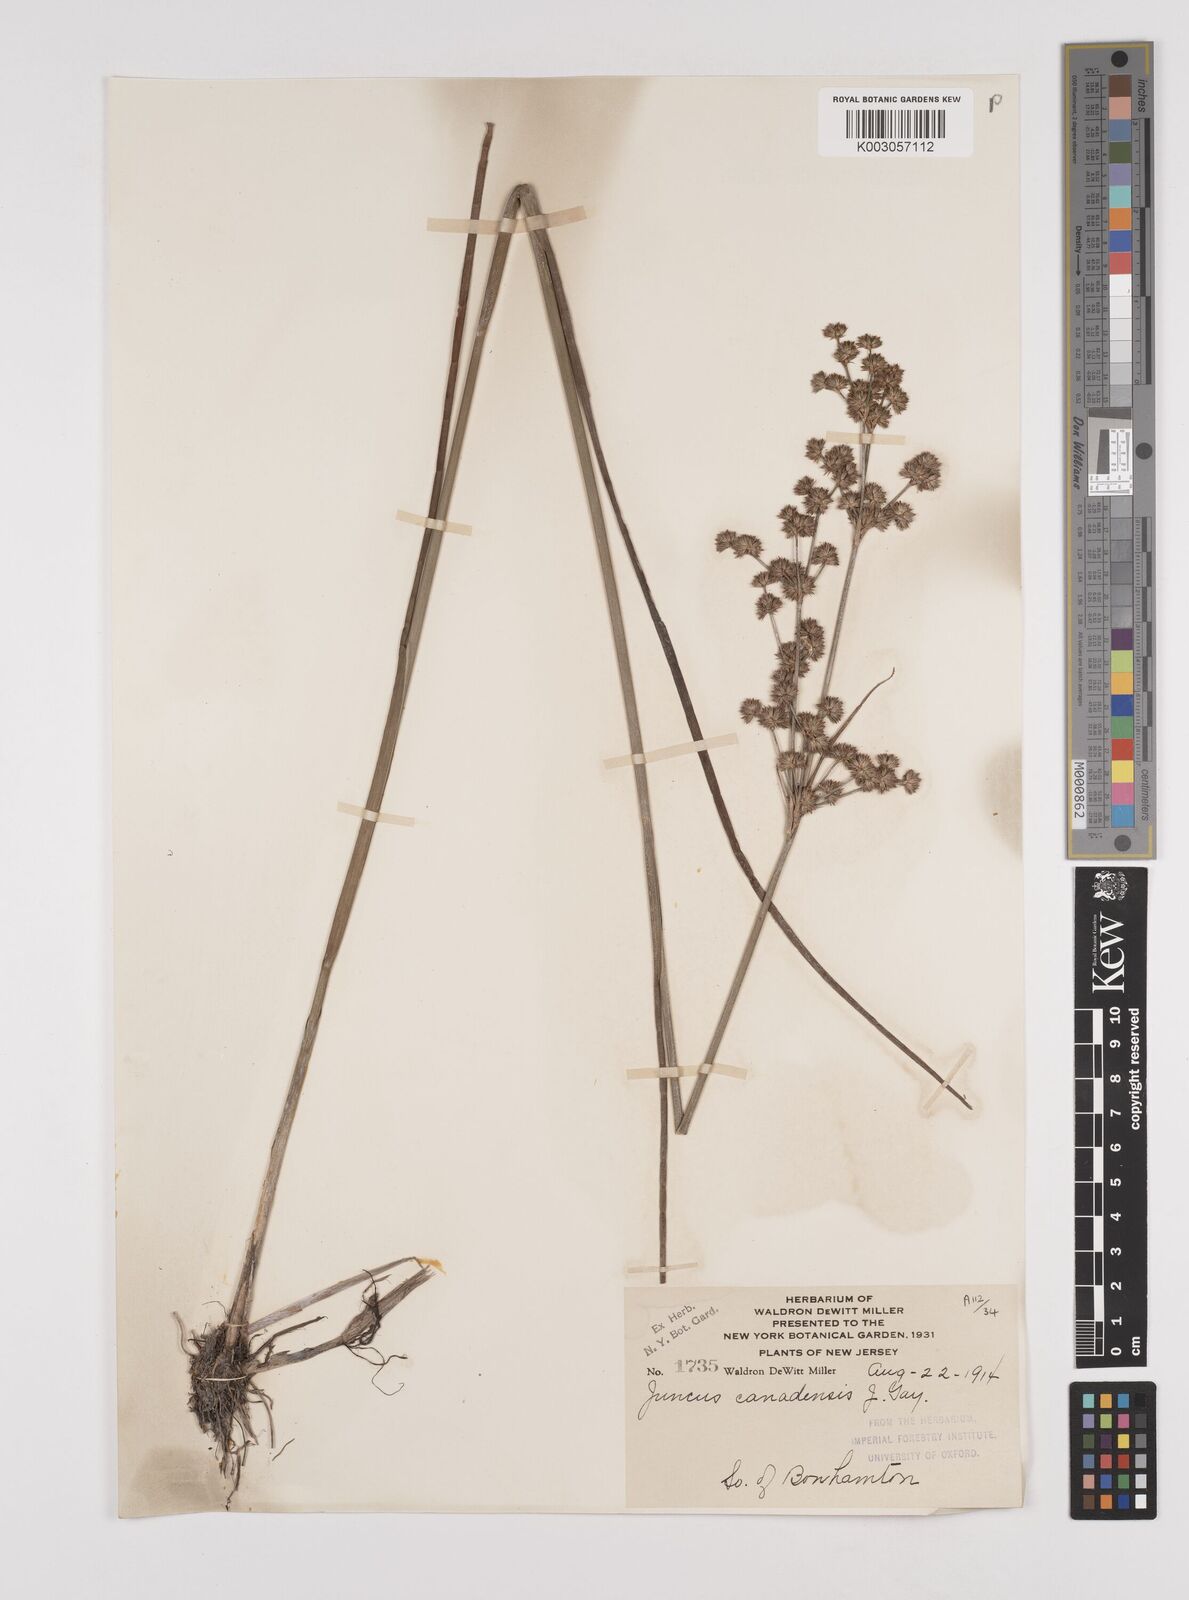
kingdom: Plantae
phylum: Tracheophyta
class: Liliopsida
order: Poales
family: Juncaceae
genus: Juncus
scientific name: Juncus canadensis
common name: Canada rush
